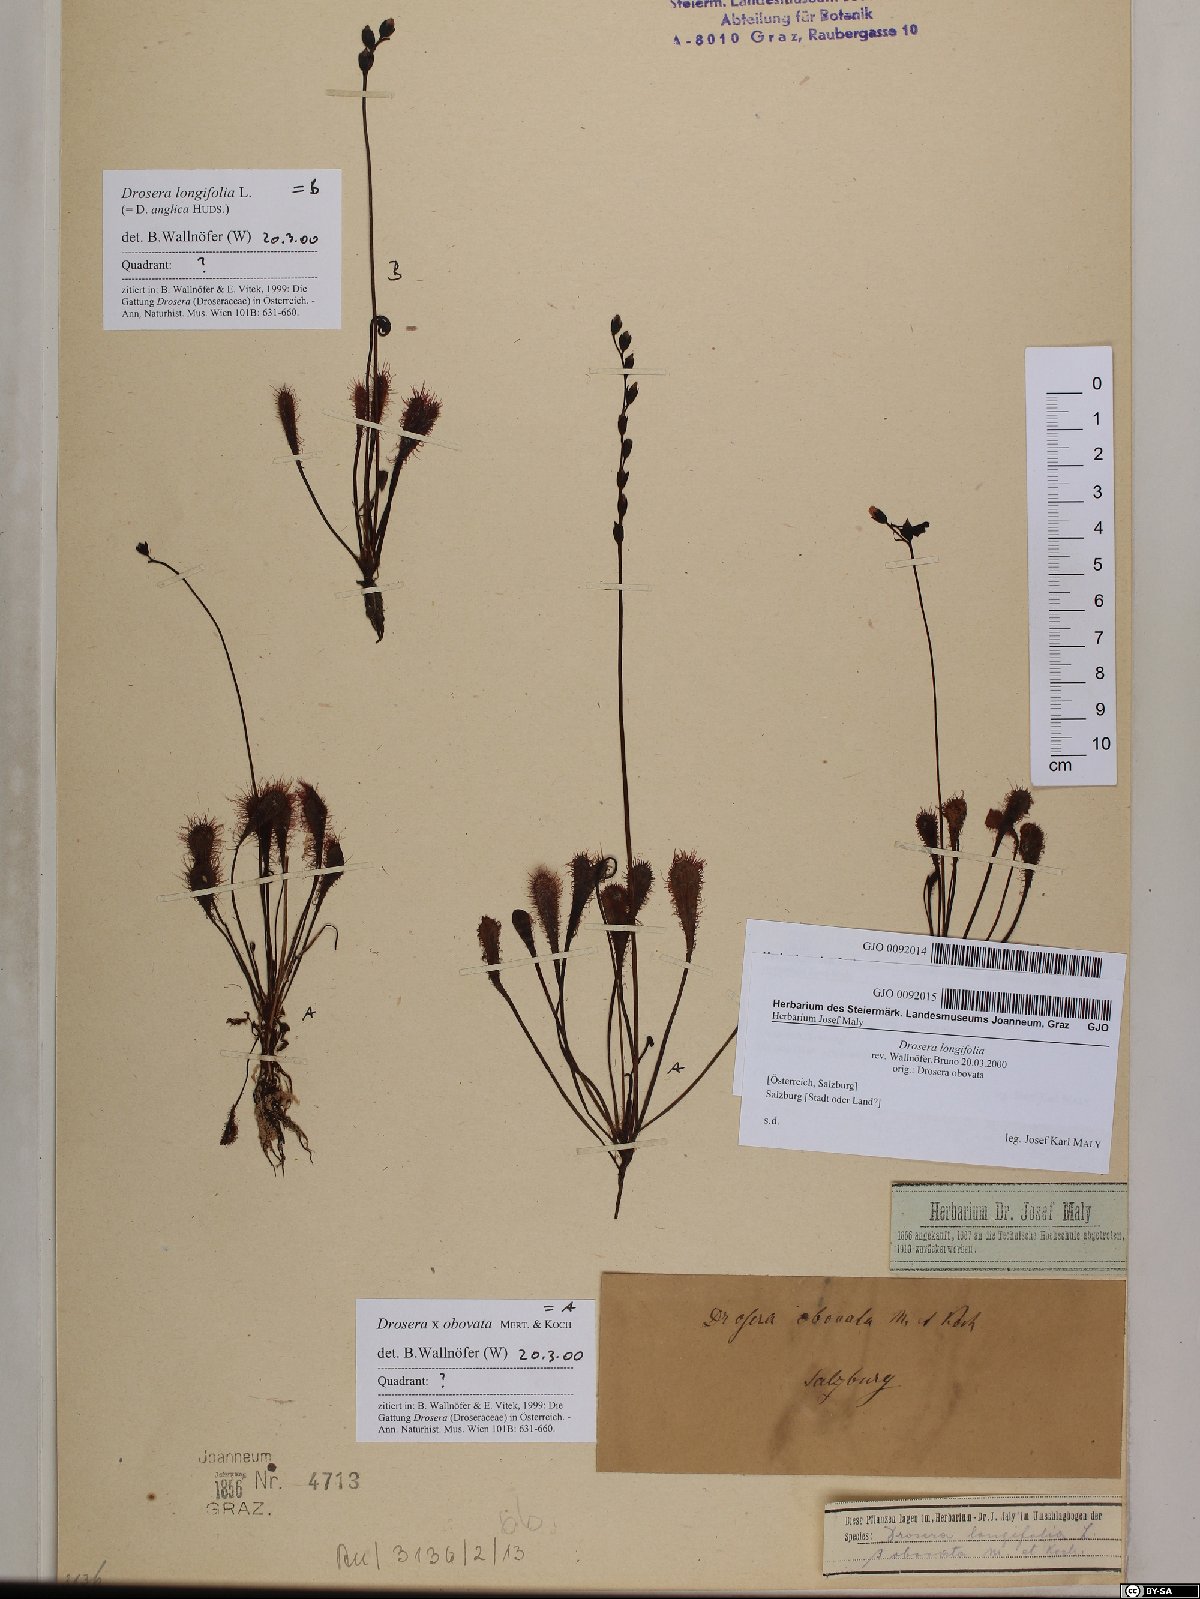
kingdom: Plantae
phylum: Tracheophyta
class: Magnoliopsida
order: Caryophyllales
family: Droseraceae
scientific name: Droseraceae
